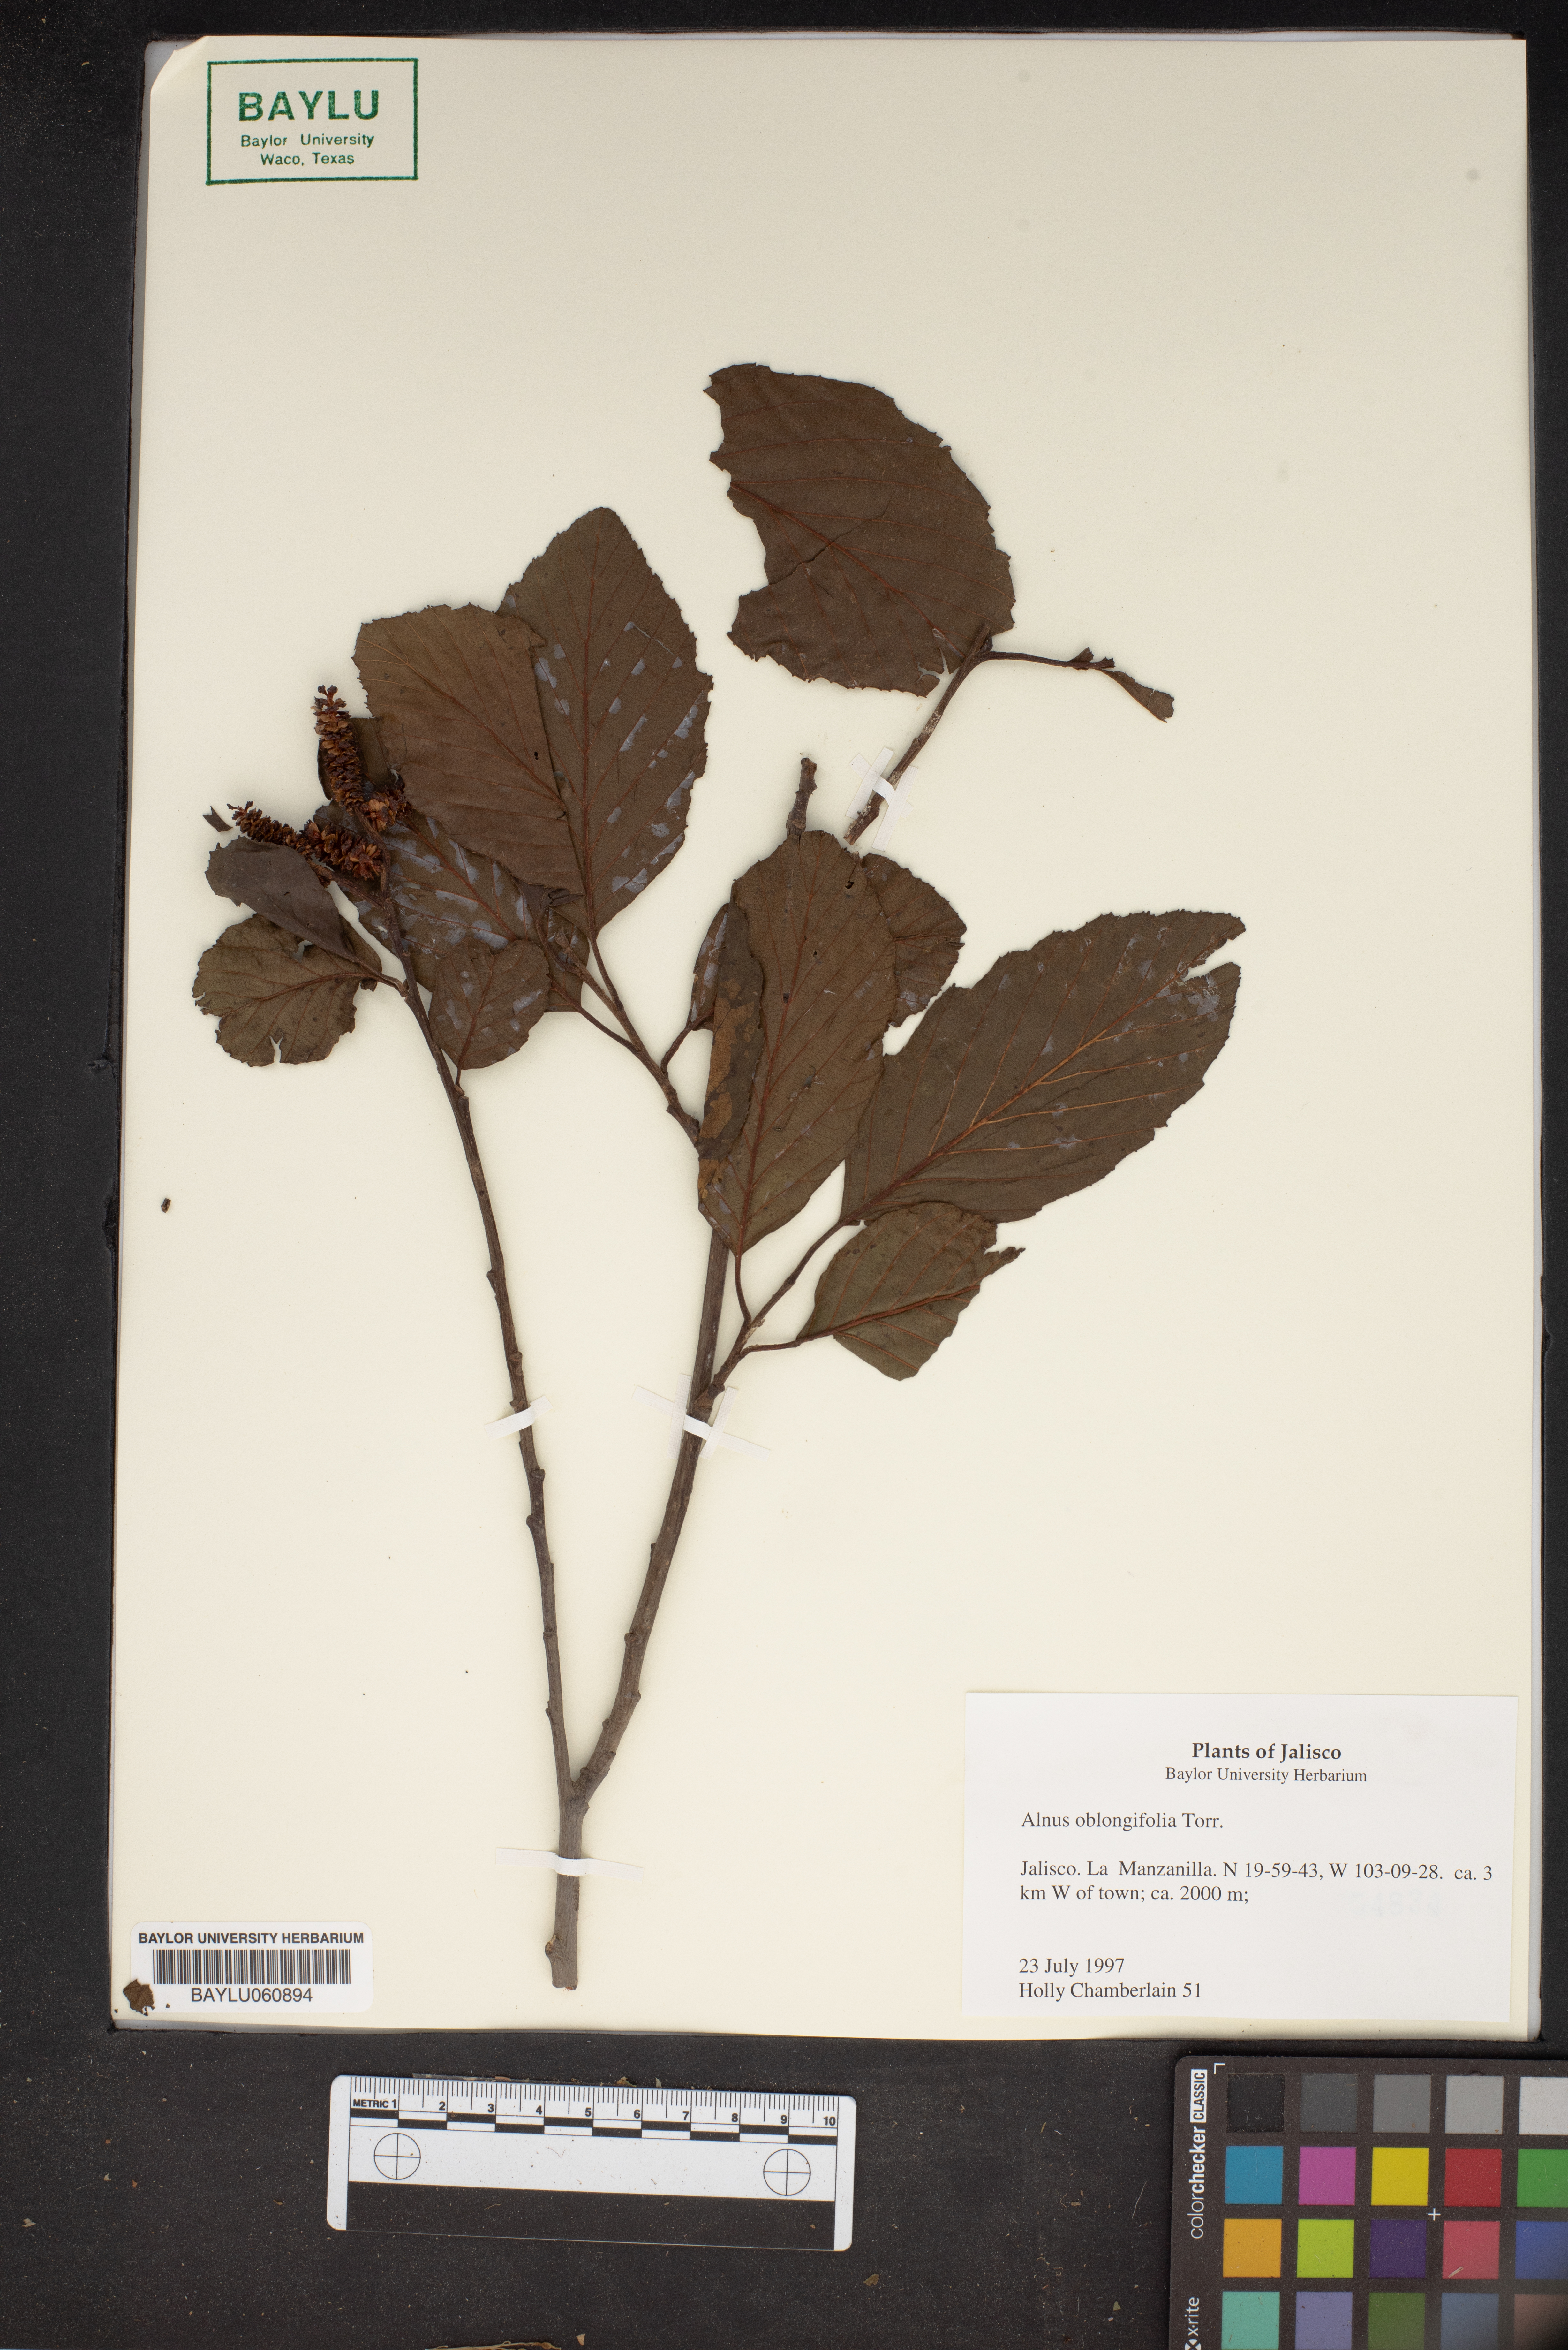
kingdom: Plantae
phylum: Tracheophyta
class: Magnoliopsida
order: Fagales
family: Betulaceae
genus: Alnus
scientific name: Alnus oblongifolia
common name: Arizona alder
